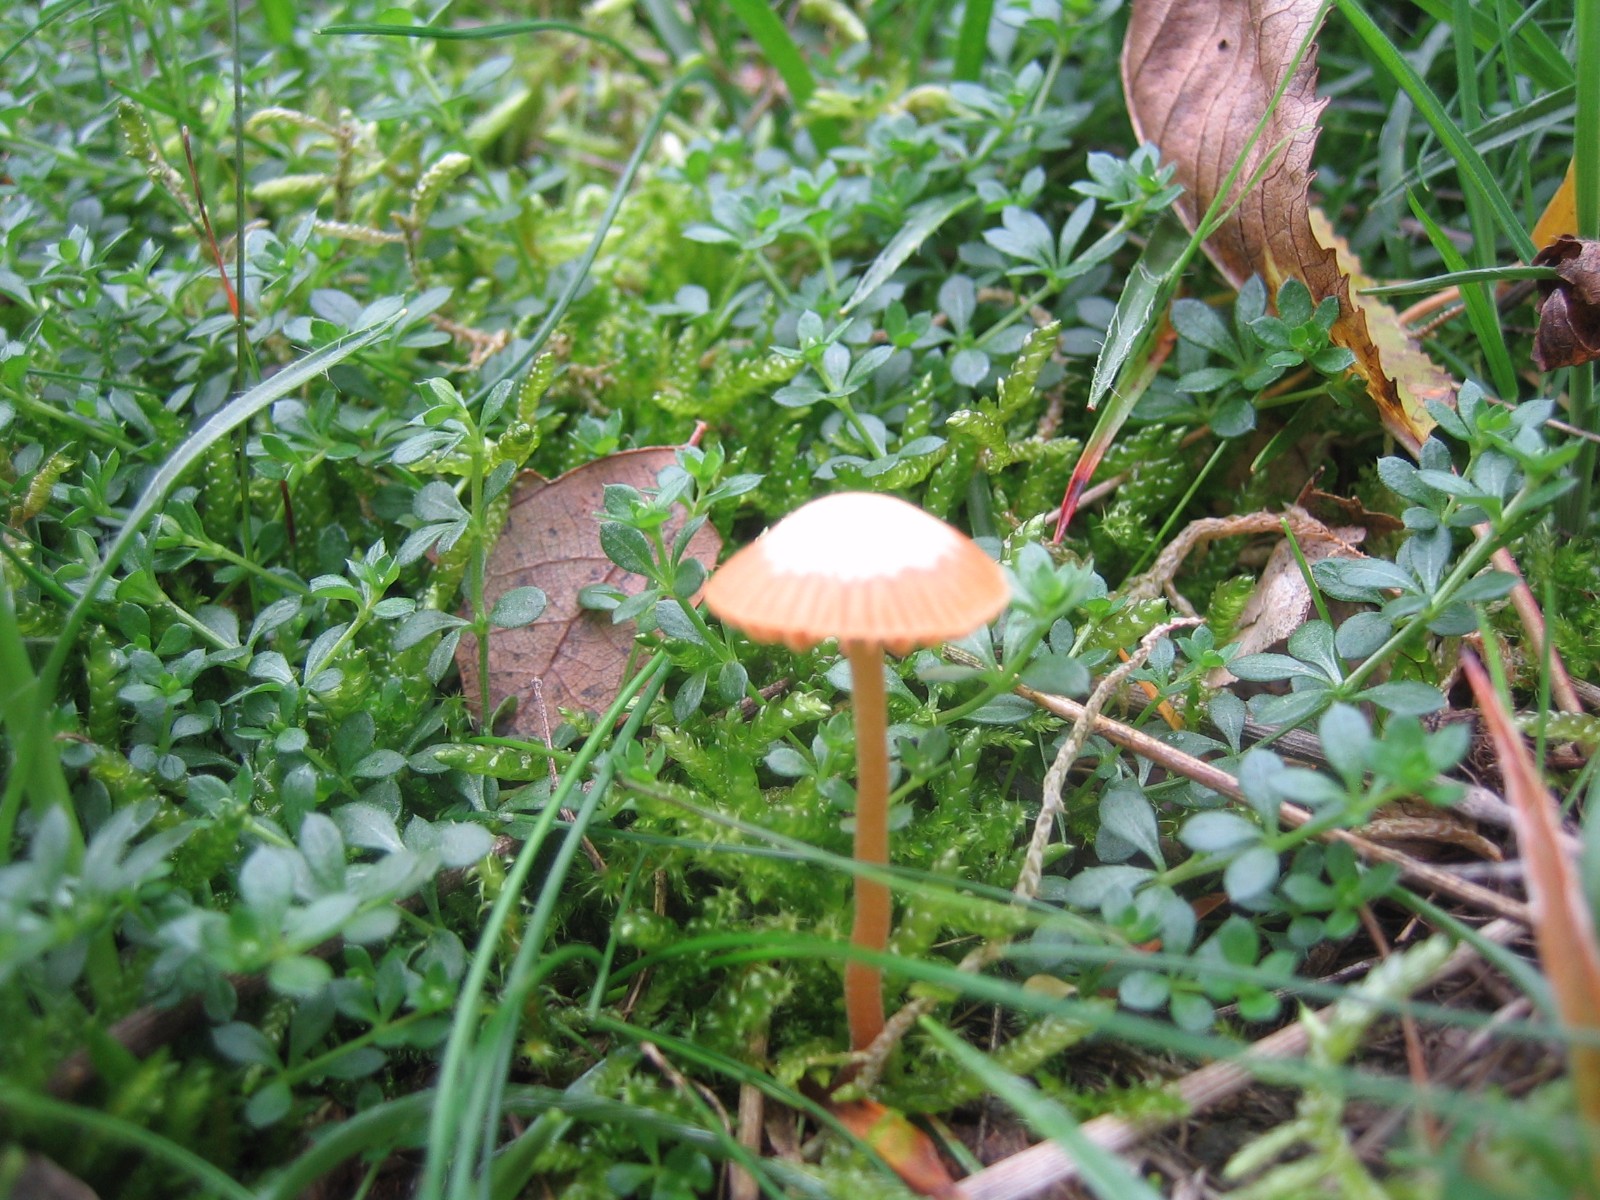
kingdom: Fungi
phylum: Basidiomycota
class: Agaricomycetes
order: Agaricales
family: Hymenogastraceae
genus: Galerina
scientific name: Galerina
